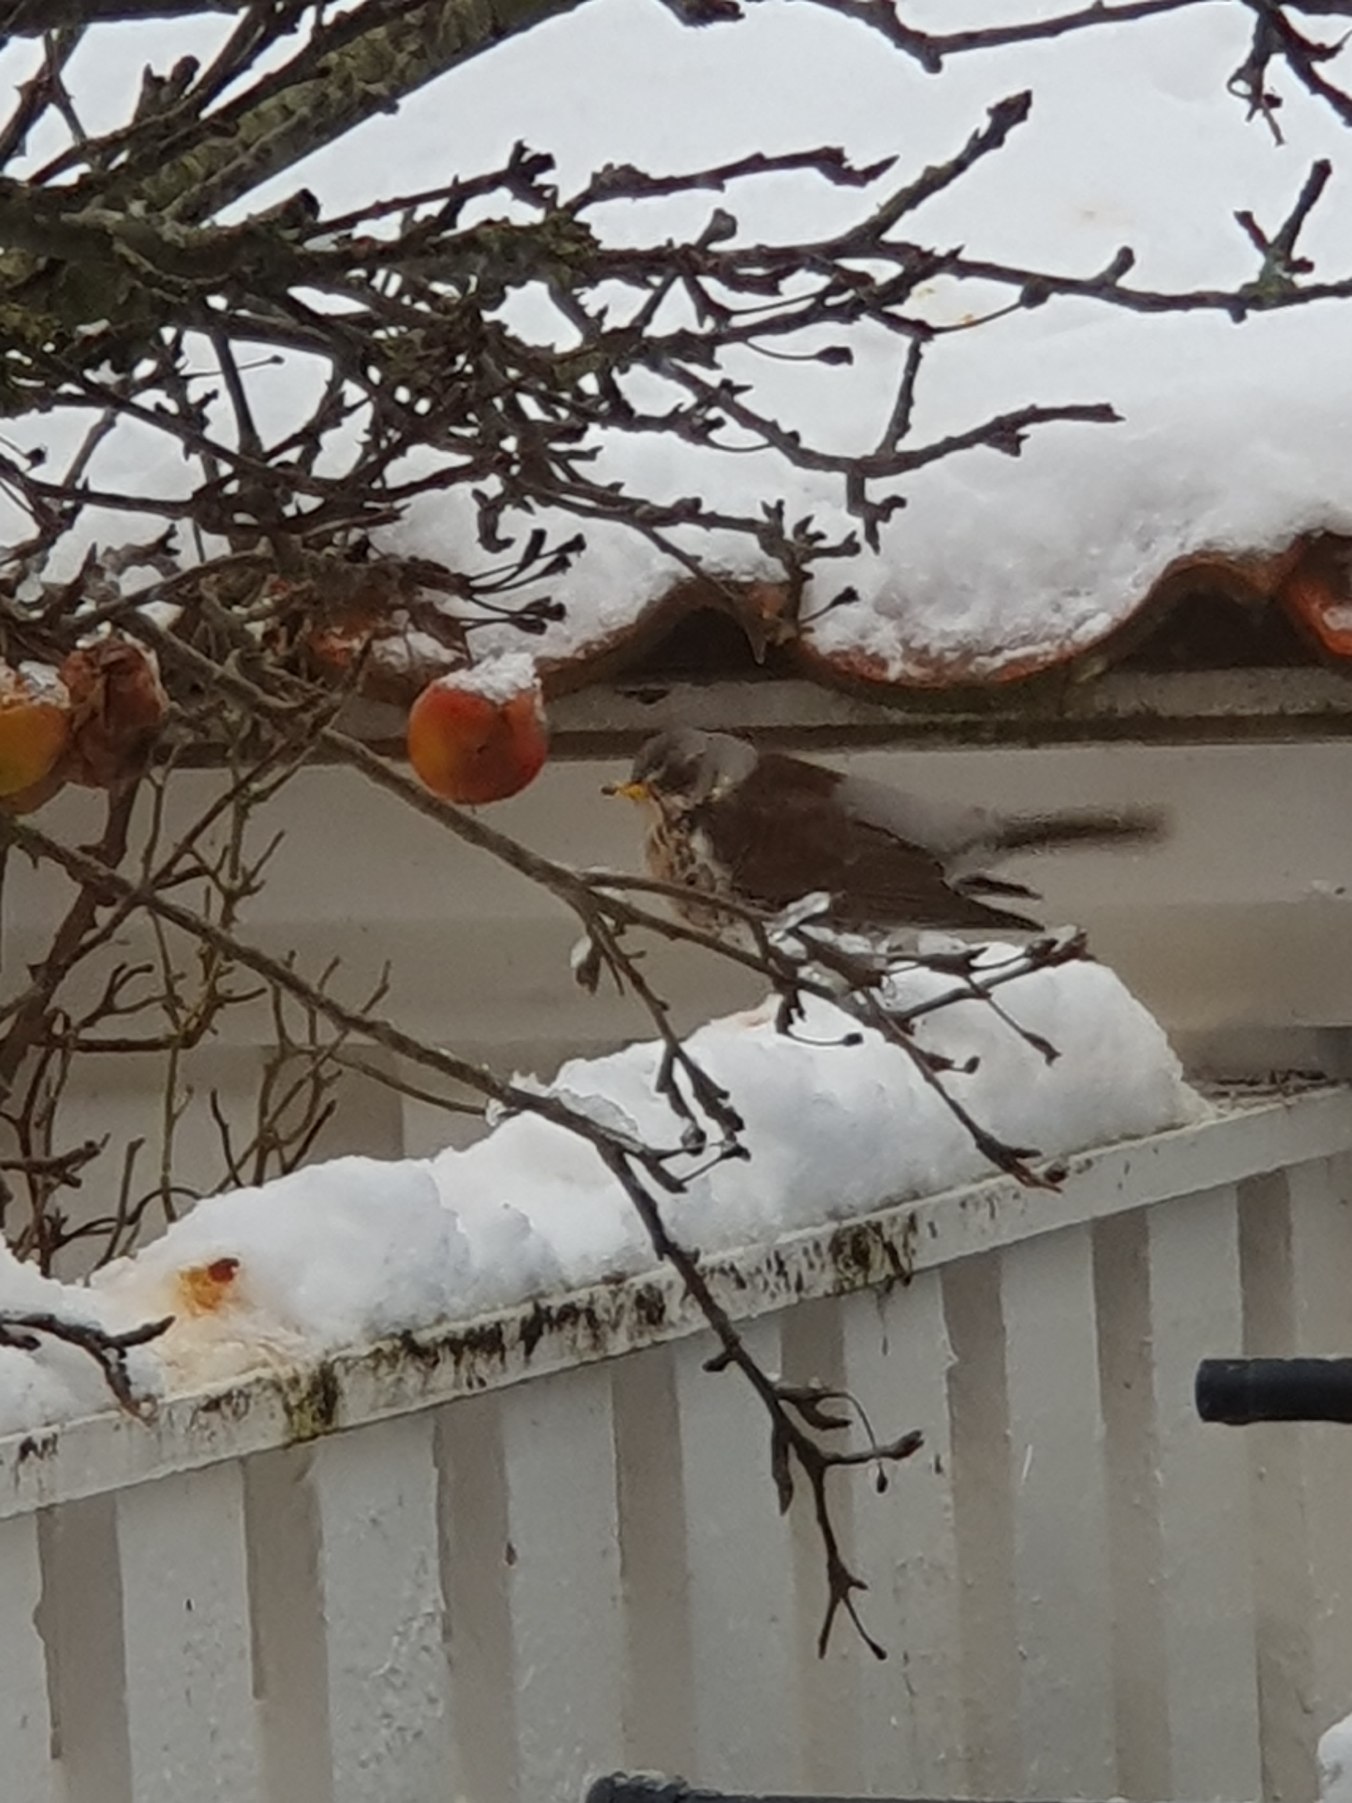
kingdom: Animalia
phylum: Chordata
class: Aves
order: Passeriformes
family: Turdidae
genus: Turdus
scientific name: Turdus pilaris
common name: Sjagger
